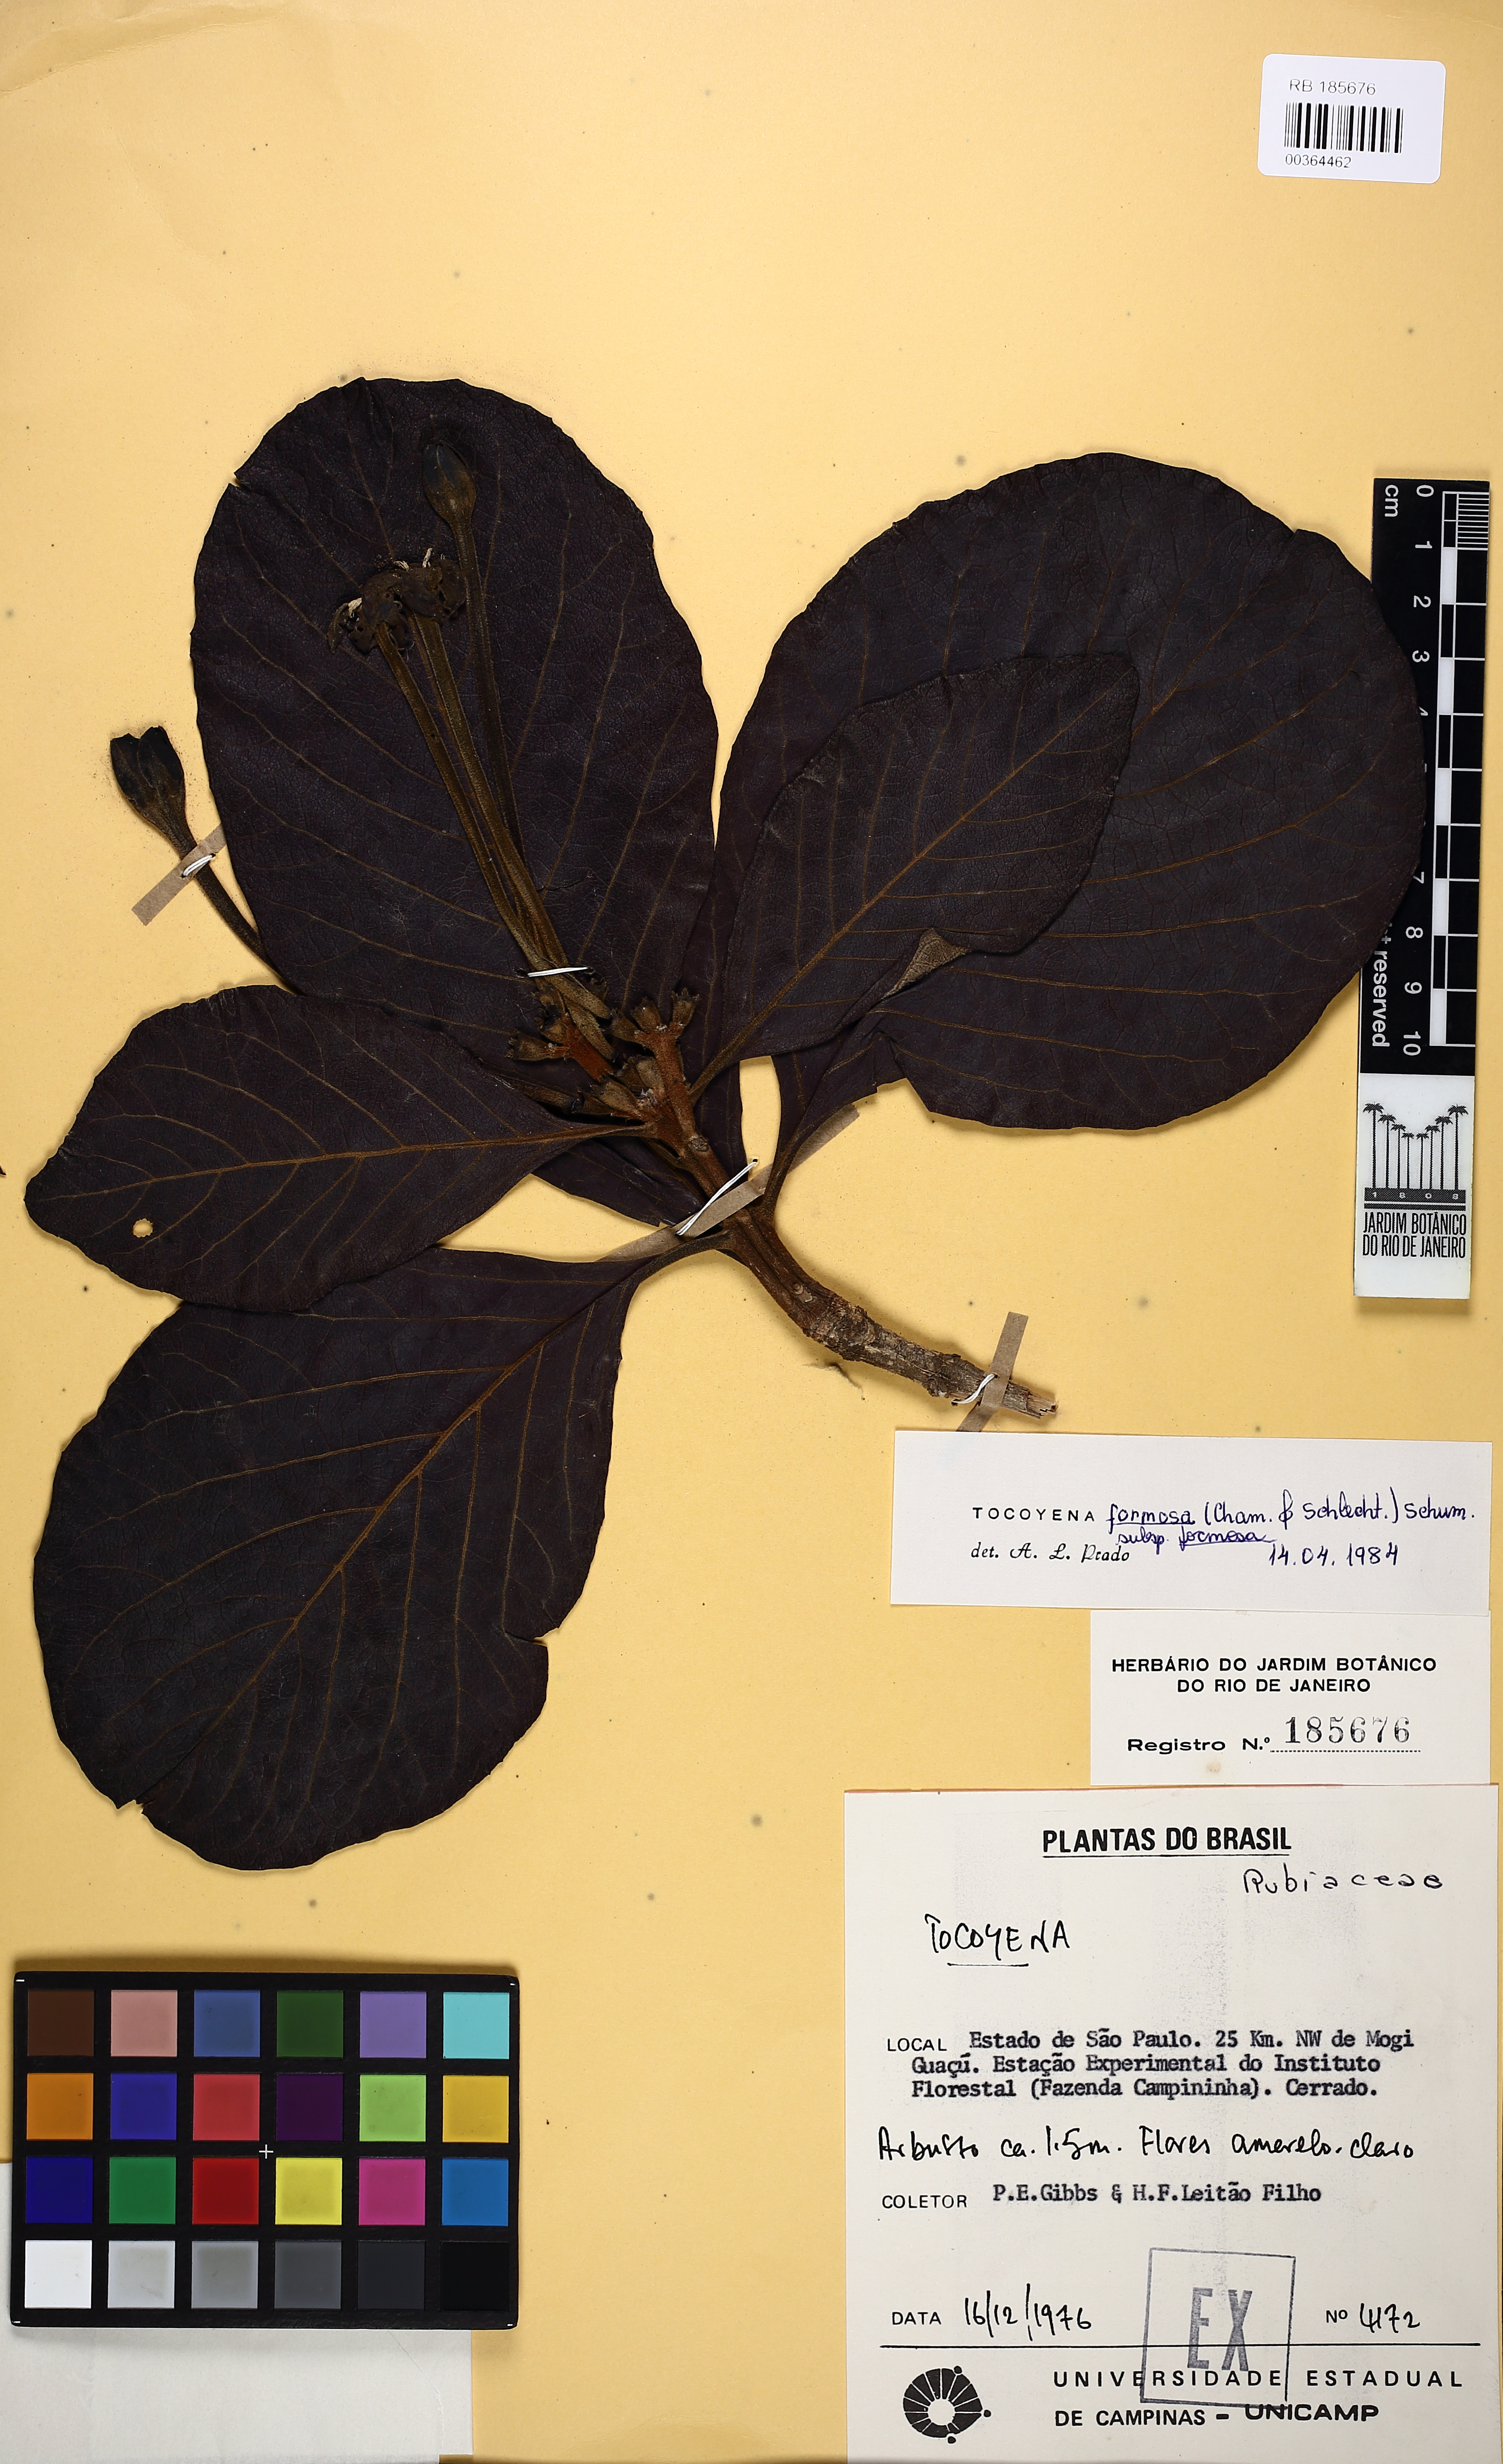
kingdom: Plantae
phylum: Tracheophyta
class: Magnoliopsida
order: Gentianales
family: Rubiaceae
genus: Tocoyena
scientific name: Tocoyena formosa
